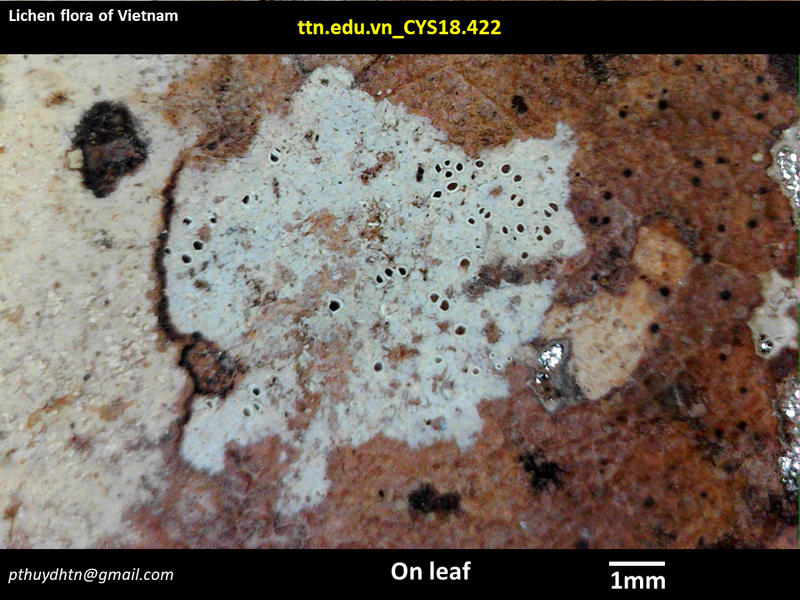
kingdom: Fungi
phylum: Ascomycota
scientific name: Ascomycota
